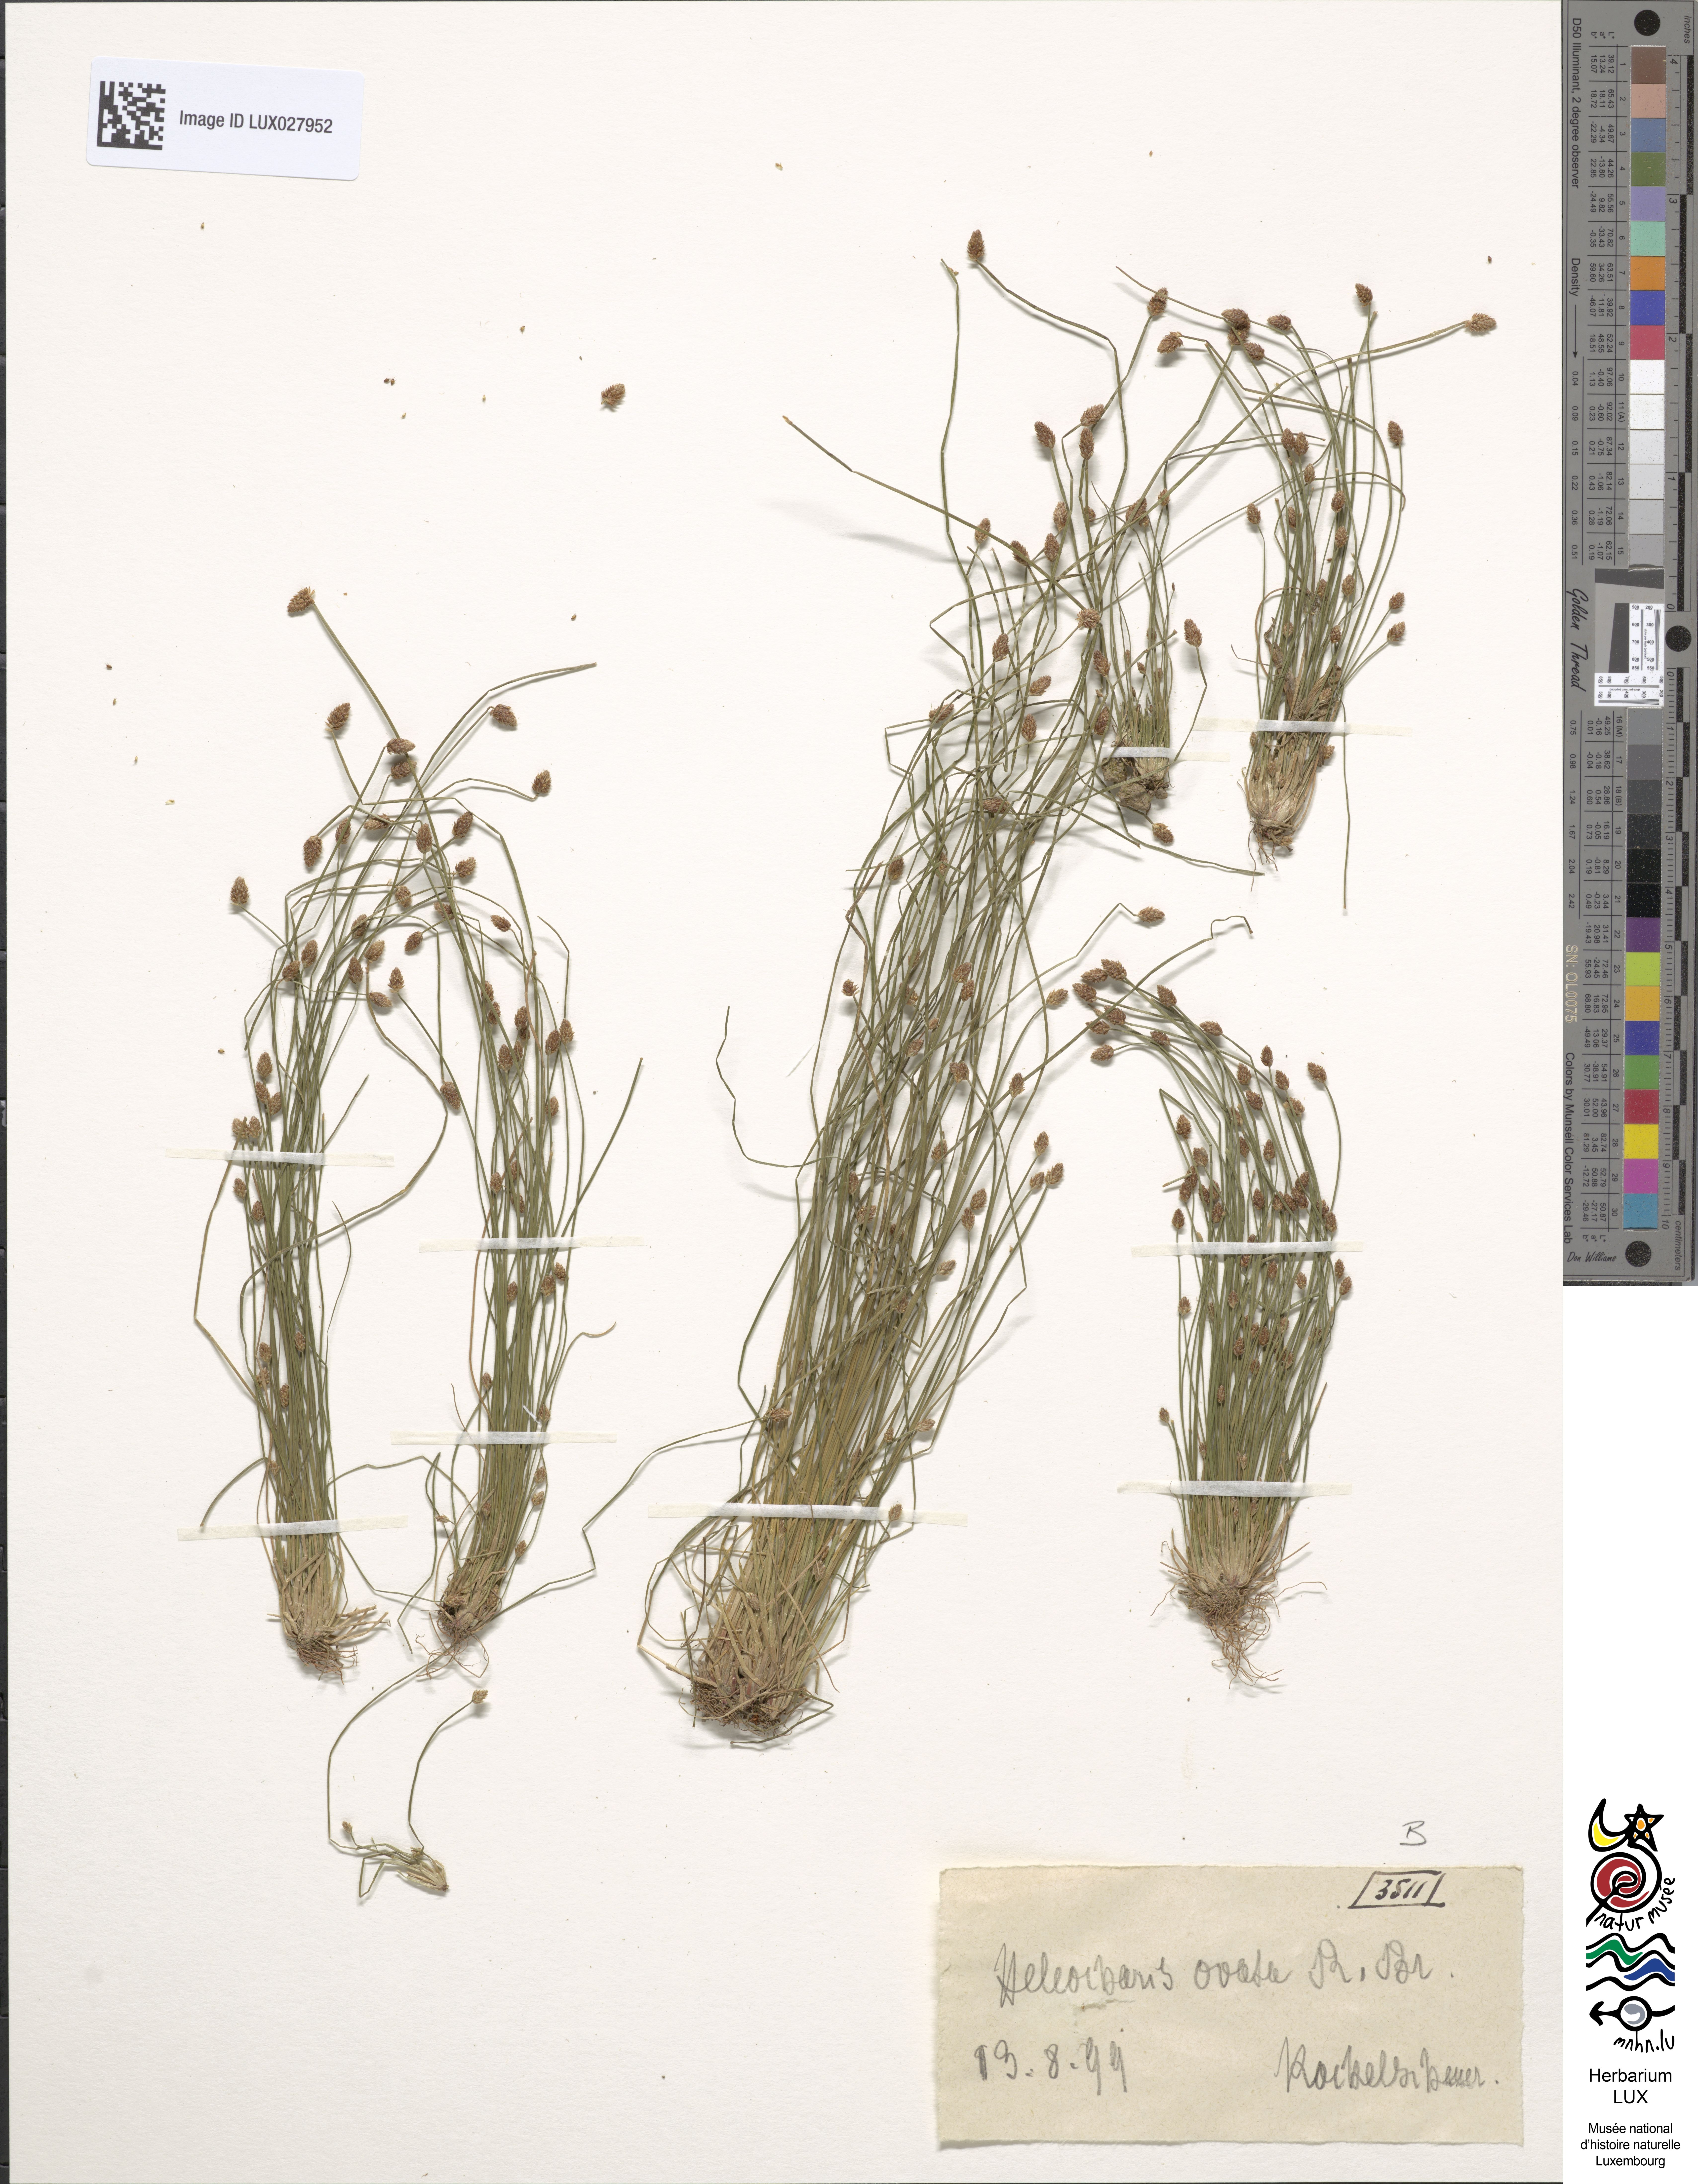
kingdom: Plantae
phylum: Tracheophyta
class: Liliopsida
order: Poales
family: Cyperaceae
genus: Eleocharis
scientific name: Eleocharis ovata
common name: Oval spike-rush
